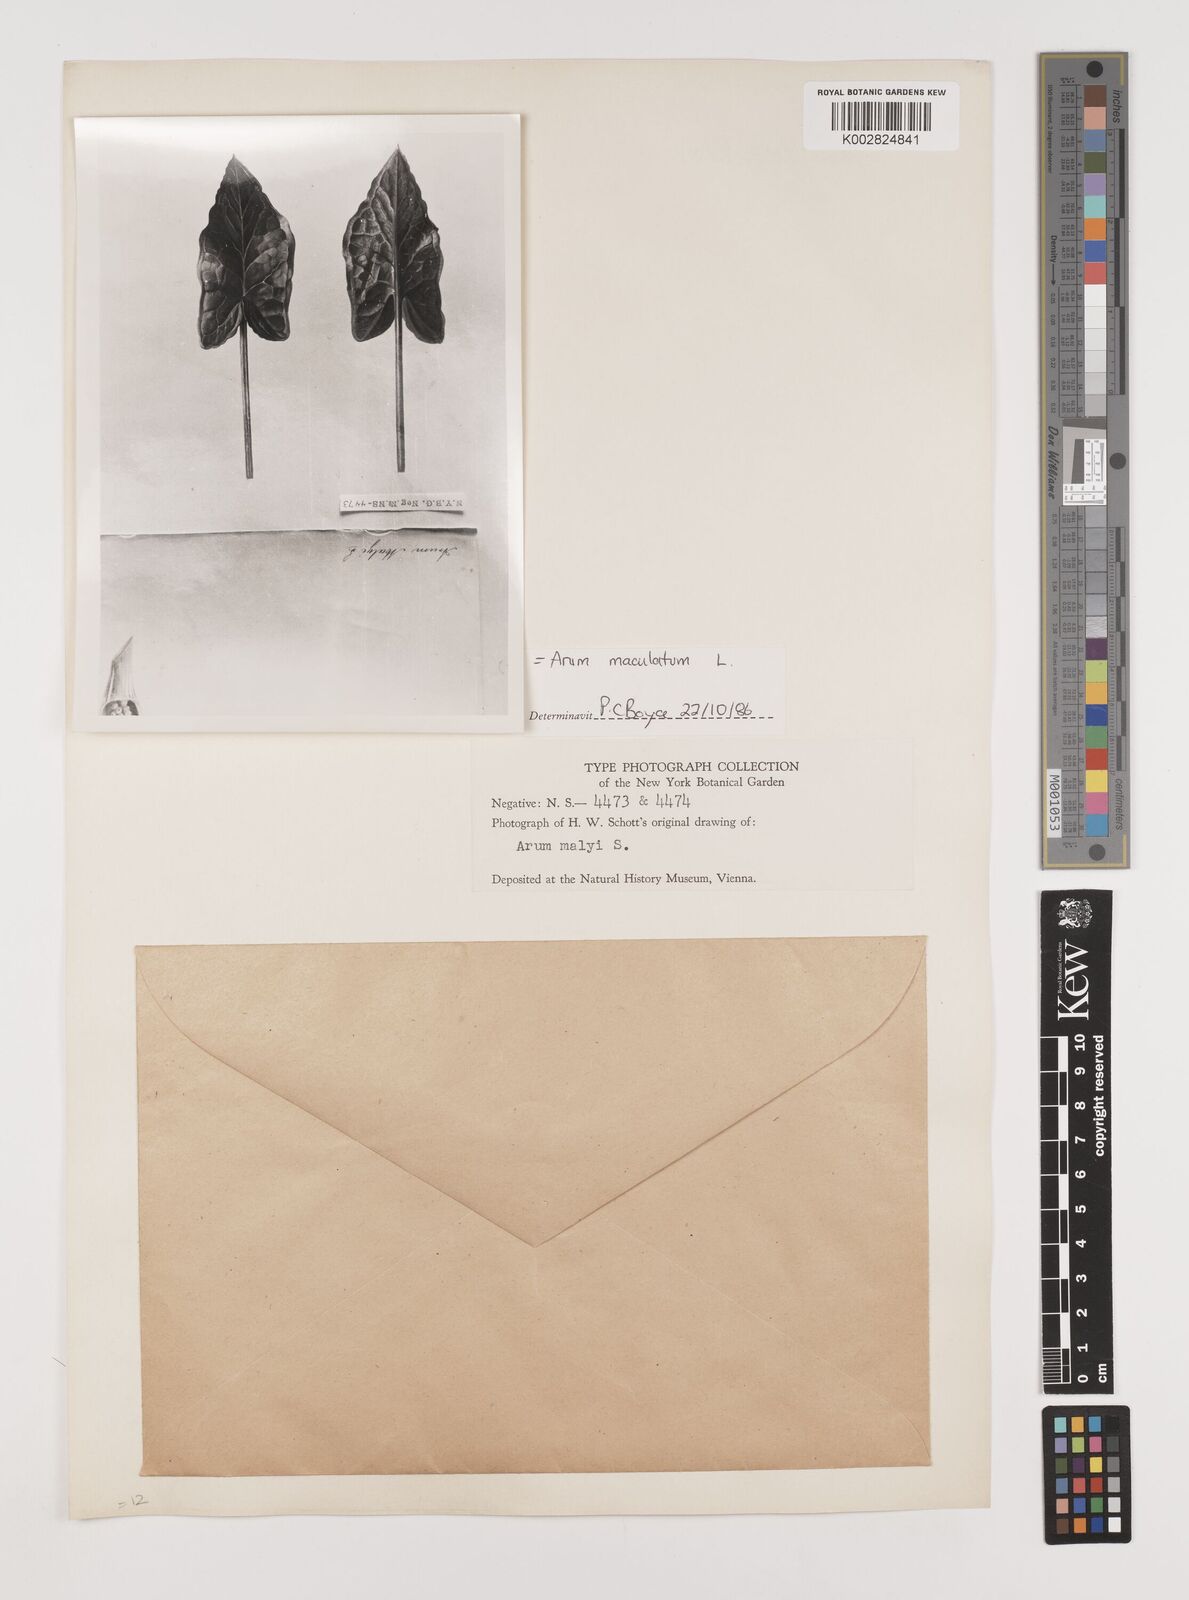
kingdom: Plantae
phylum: Tracheophyta
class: Liliopsida
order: Alismatales
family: Araceae
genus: Arum
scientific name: Arum maculatum
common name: Lords-and-ladies
